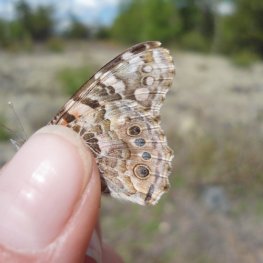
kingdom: Animalia
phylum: Arthropoda
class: Insecta
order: Lepidoptera
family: Nymphalidae
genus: Vanessa
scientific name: Vanessa cardui
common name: Painted Lady
